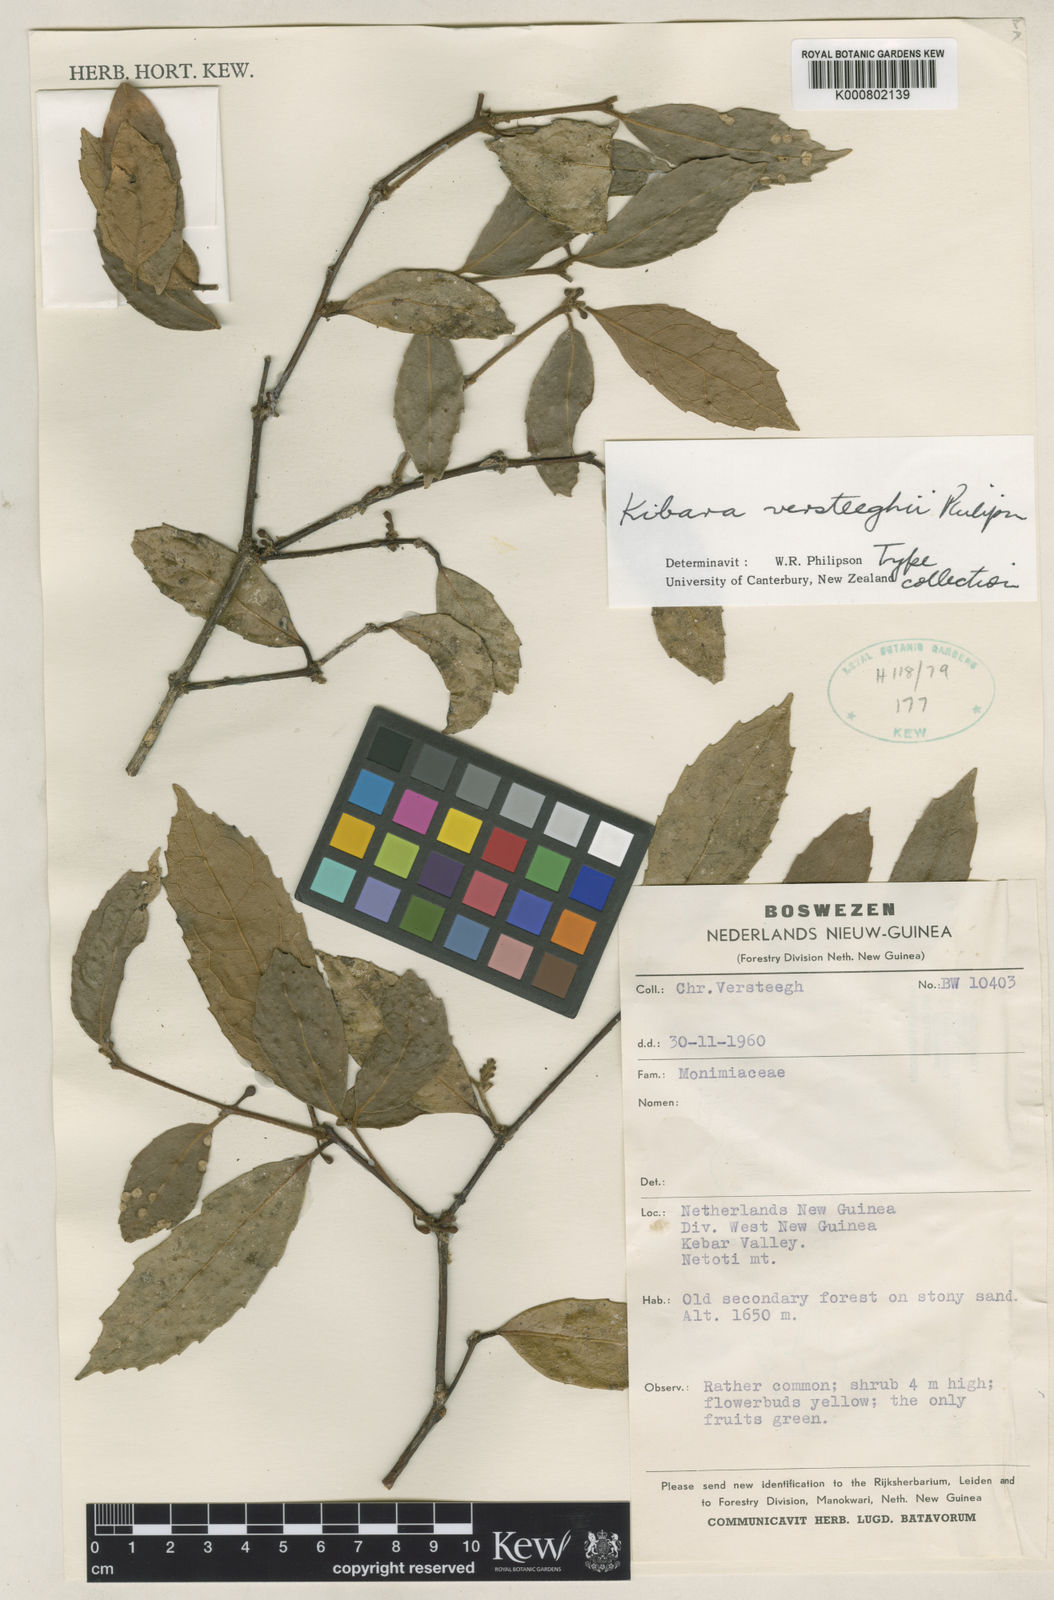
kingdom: Plantae
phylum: Tracheophyta
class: Magnoliopsida
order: Laurales
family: Monimiaceae
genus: Kibara
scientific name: Kibara versteeghii
